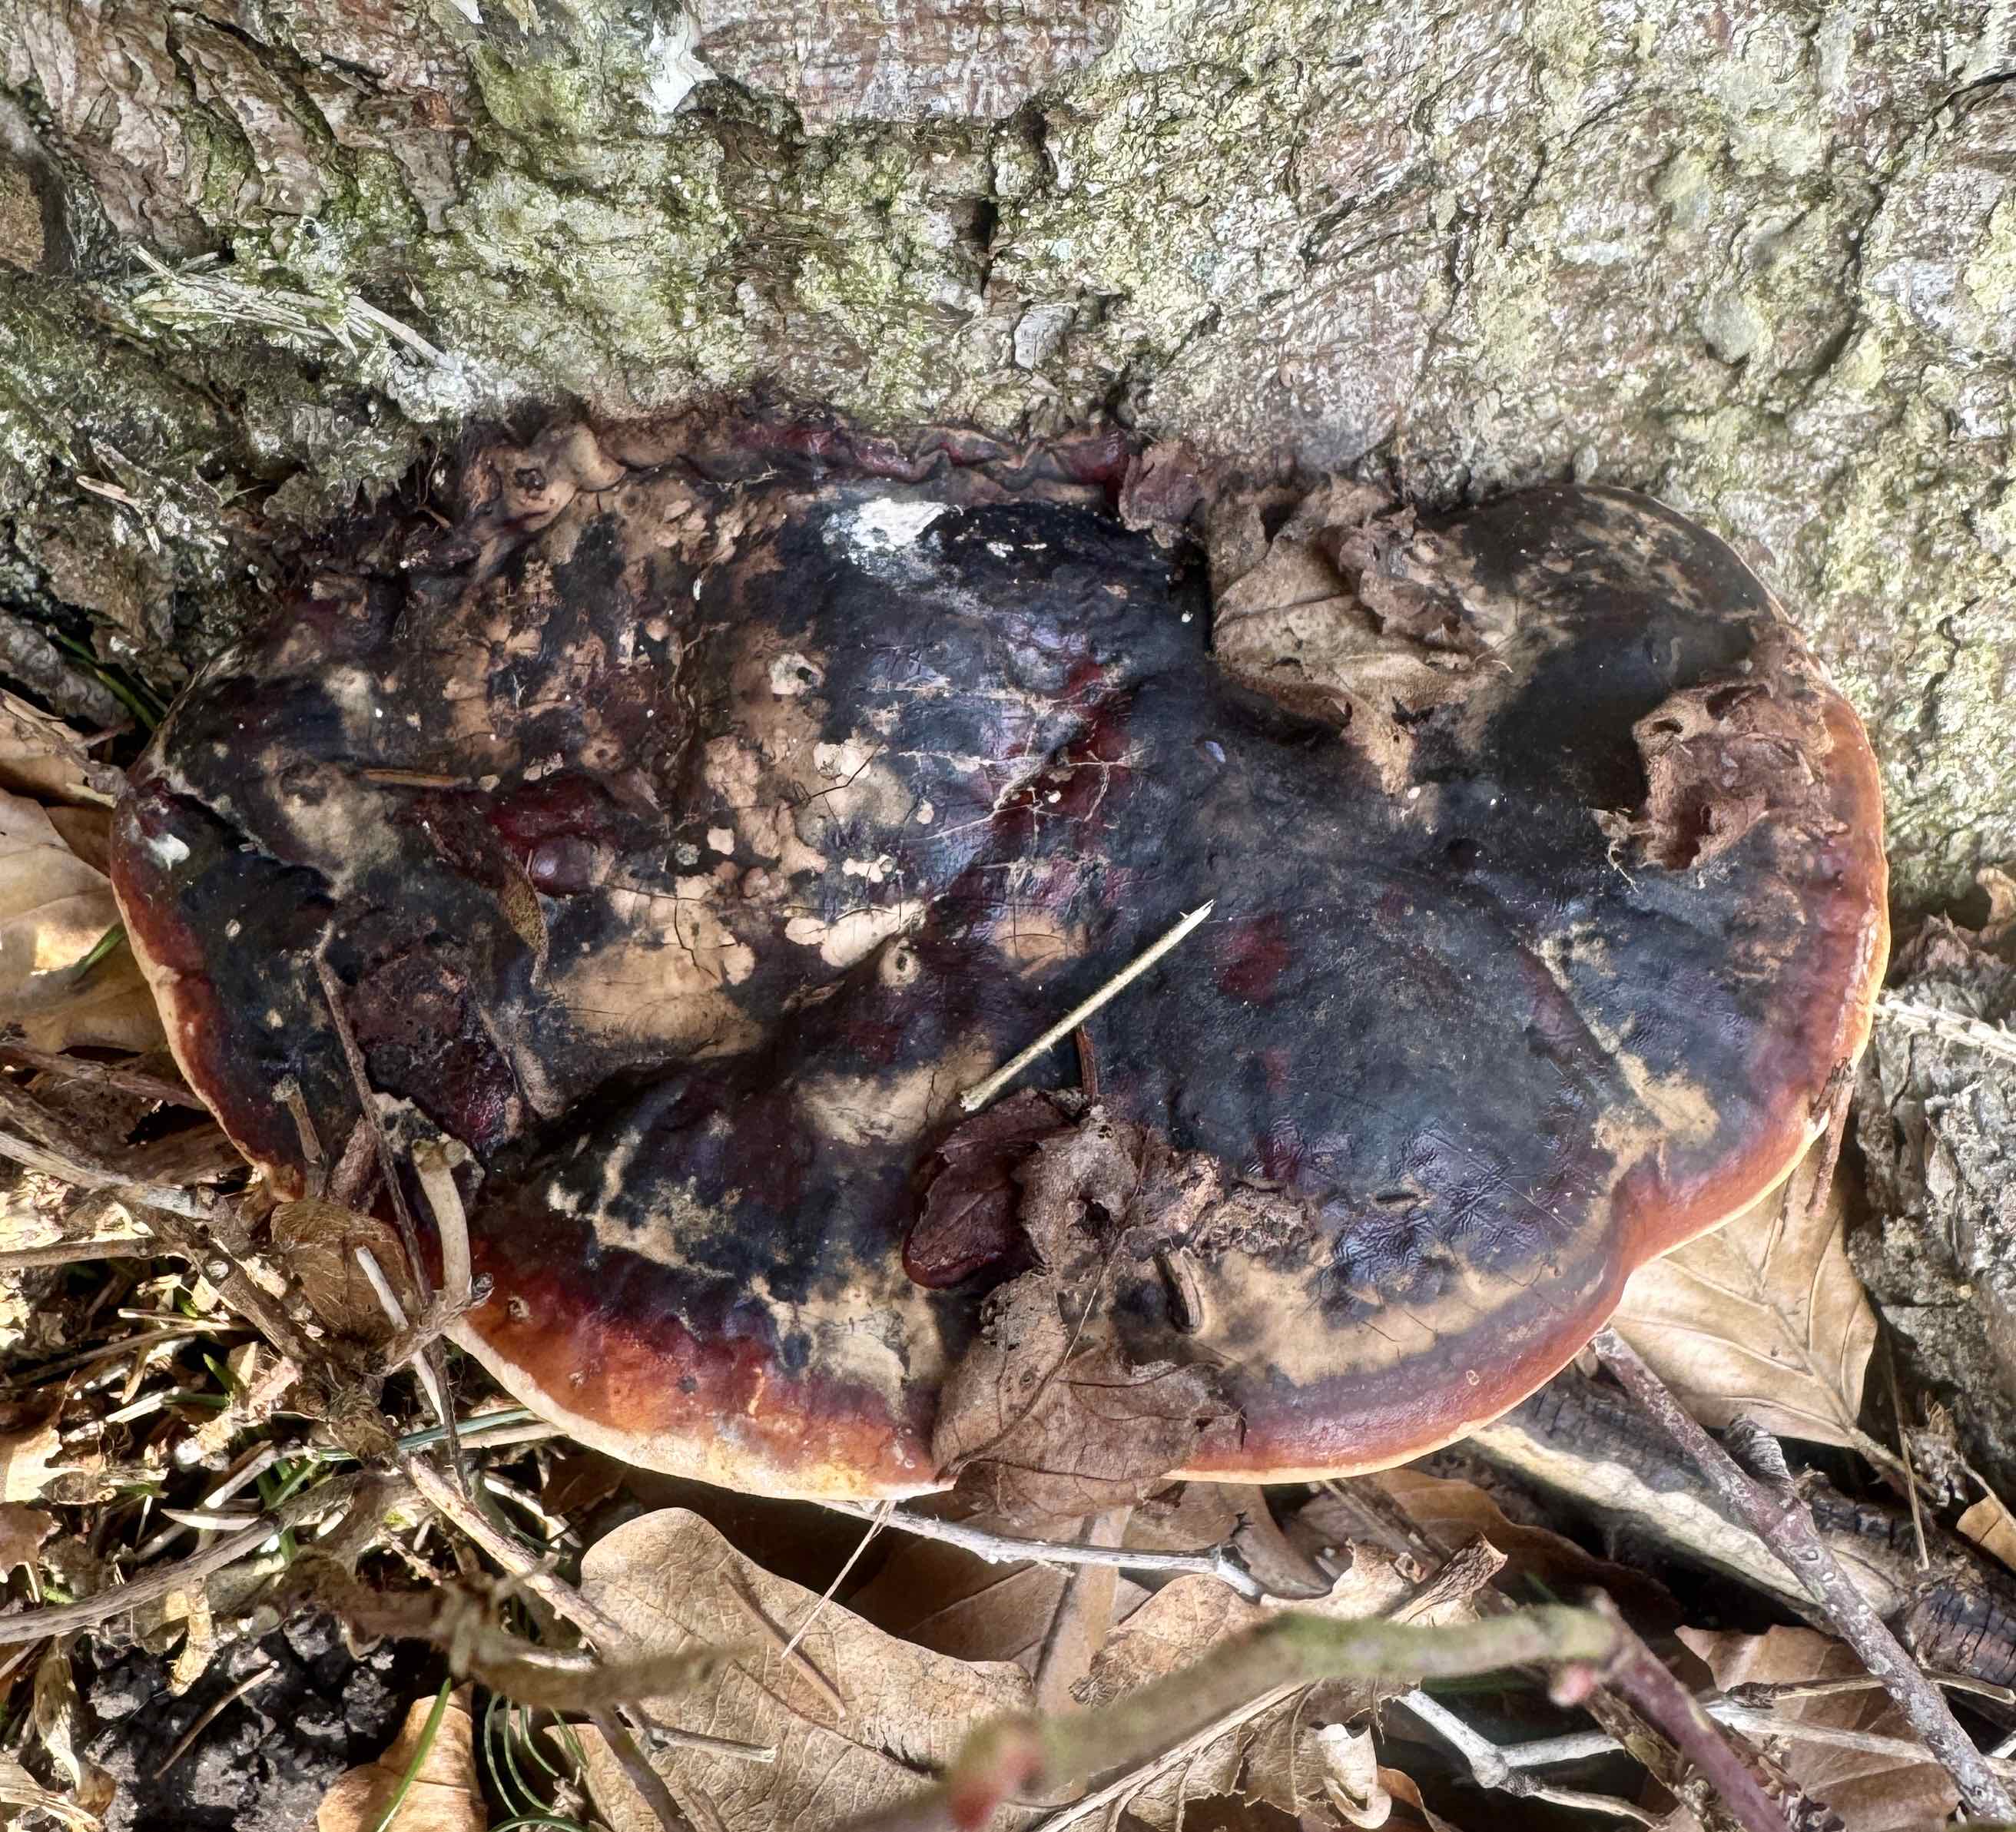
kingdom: Fungi
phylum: Basidiomycota
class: Agaricomycetes
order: Polyporales
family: Fomitopsidaceae
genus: Fomitopsis
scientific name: Fomitopsis pinicola
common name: randbæltet hovporesvamp
